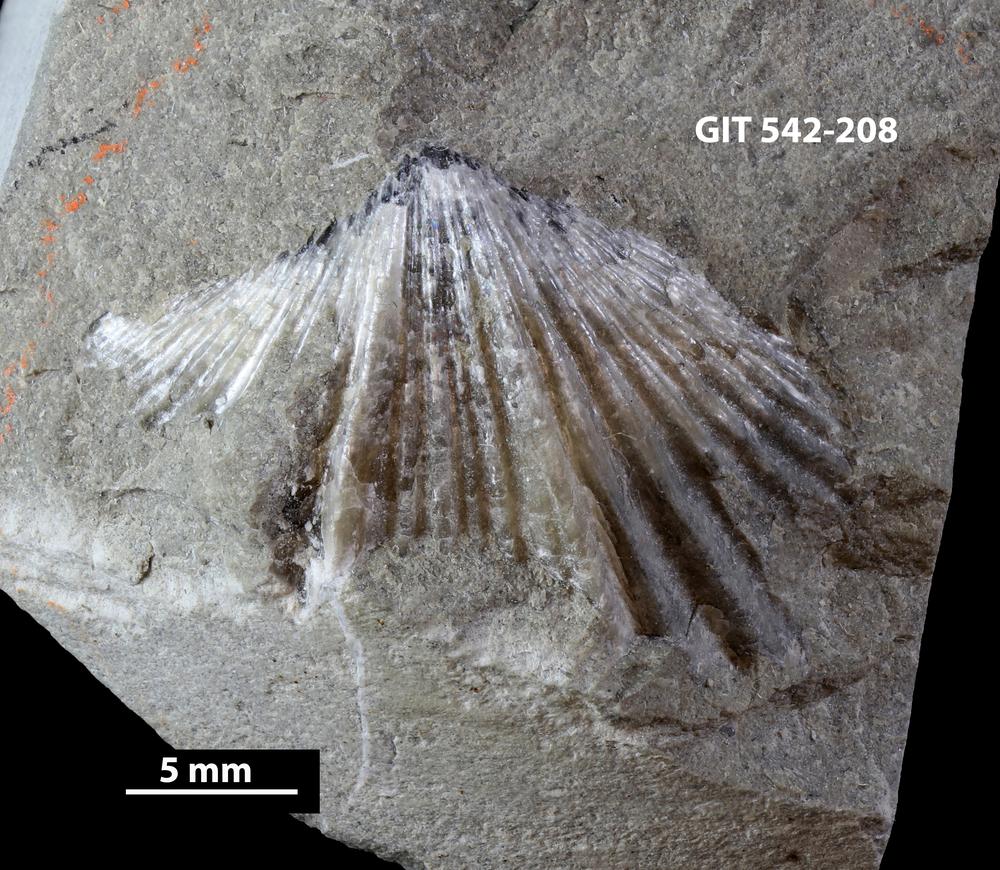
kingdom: Animalia
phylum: Brachiopoda
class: Rhynchonellata
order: Rhynchonellida
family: Trigonirhynchiidae
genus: Plectothyrella
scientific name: Plectothyrella Atrypa crassicosta
